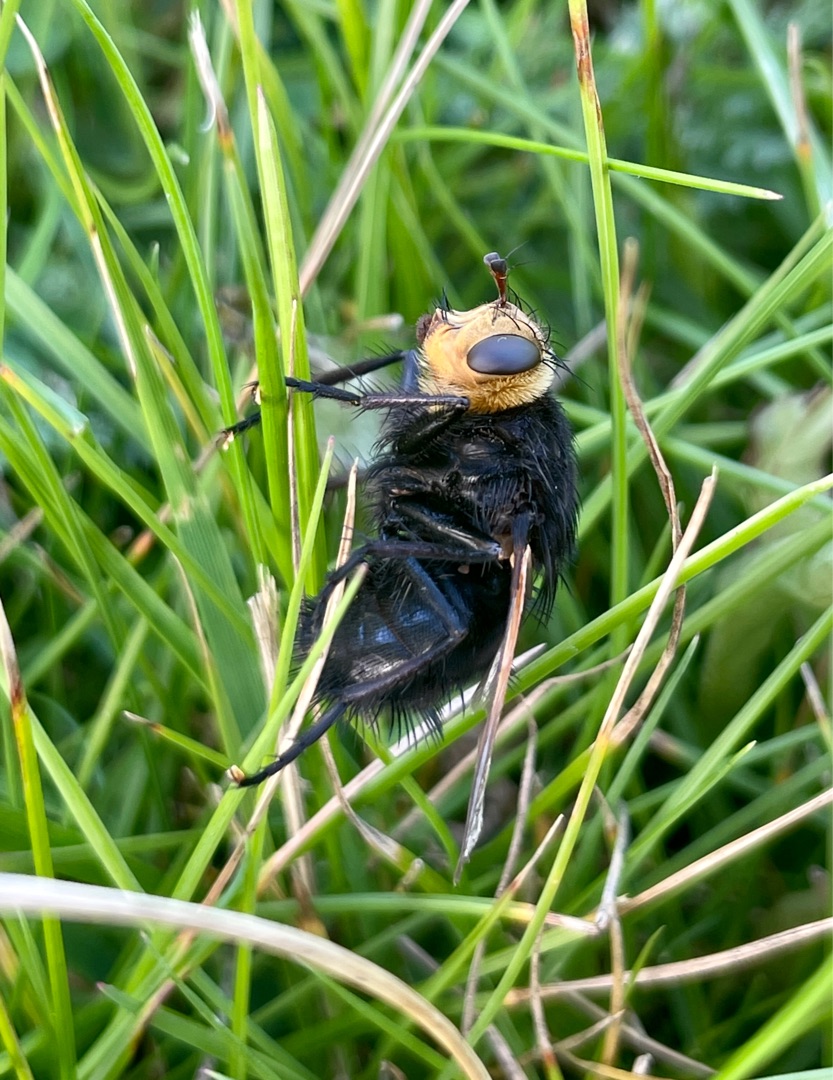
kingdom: Animalia
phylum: Arthropoda
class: Insecta
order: Diptera
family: Tachinidae
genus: Tachina
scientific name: Tachina grossa
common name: Kæmpefluen Harald
